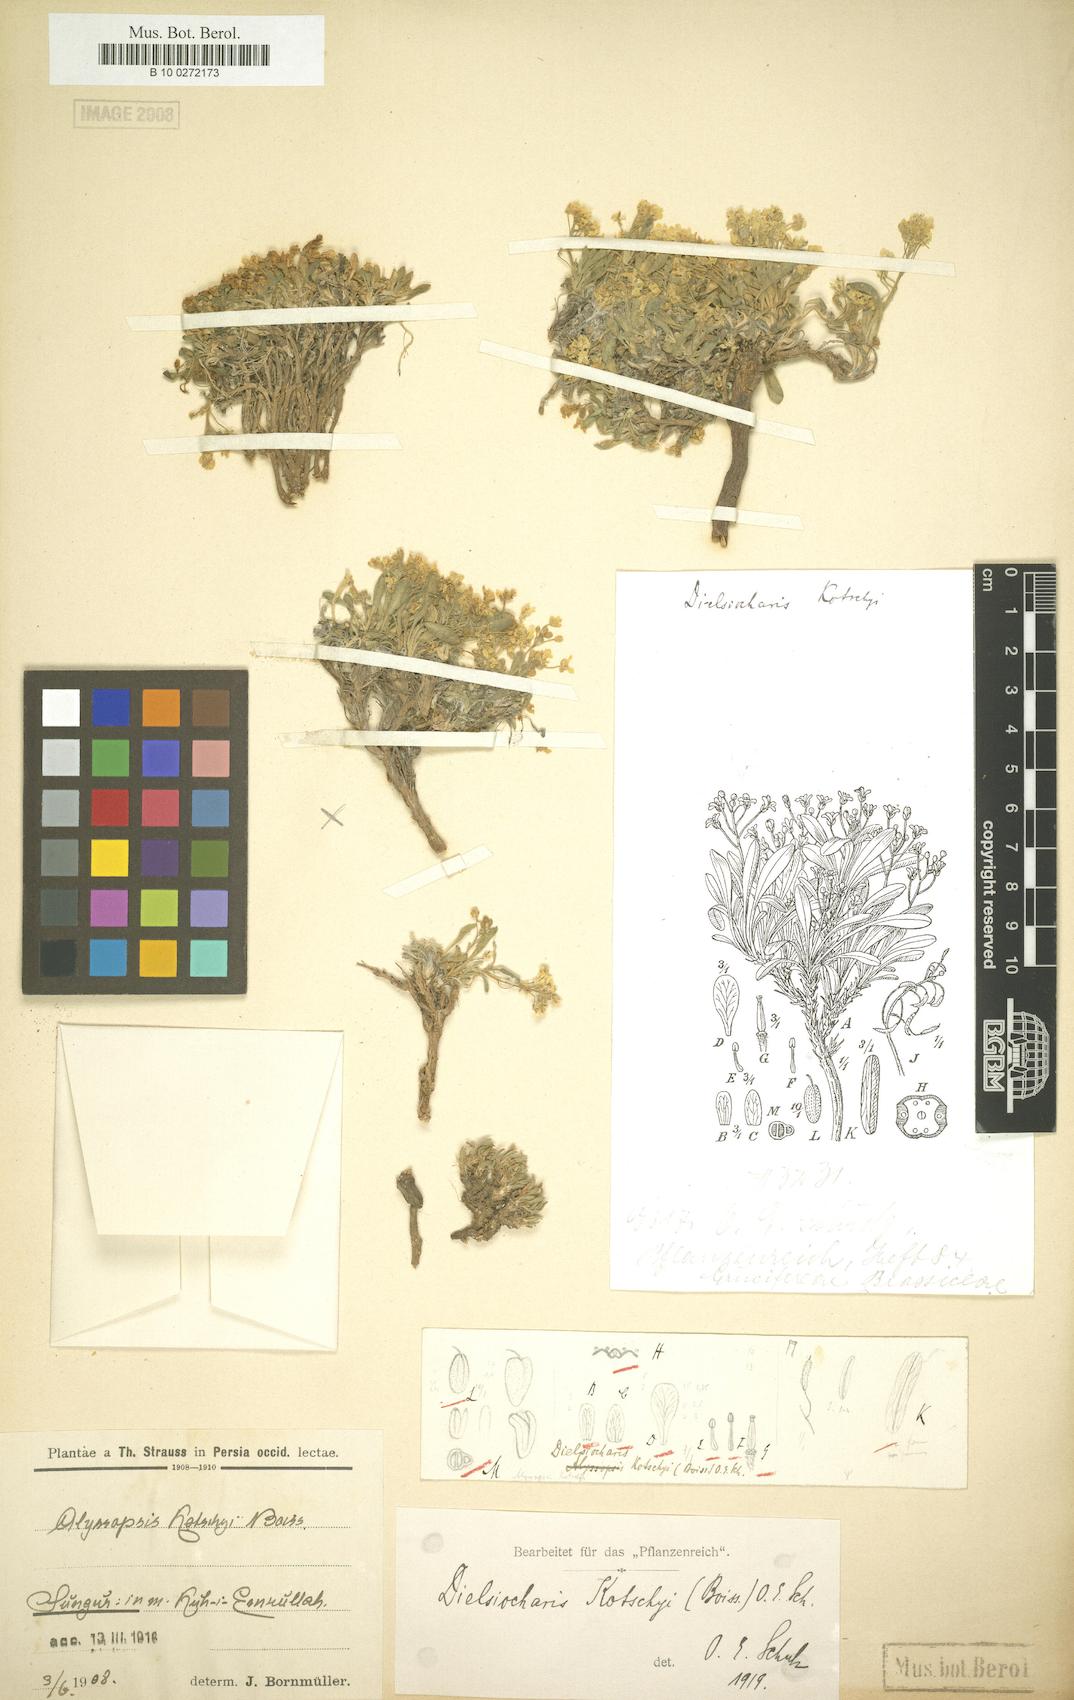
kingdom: Plantae
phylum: Tracheophyta
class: Magnoliopsida
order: Brassicales
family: Brassicaceae
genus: Dielsiocharis
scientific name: Dielsiocharis kotschyi
